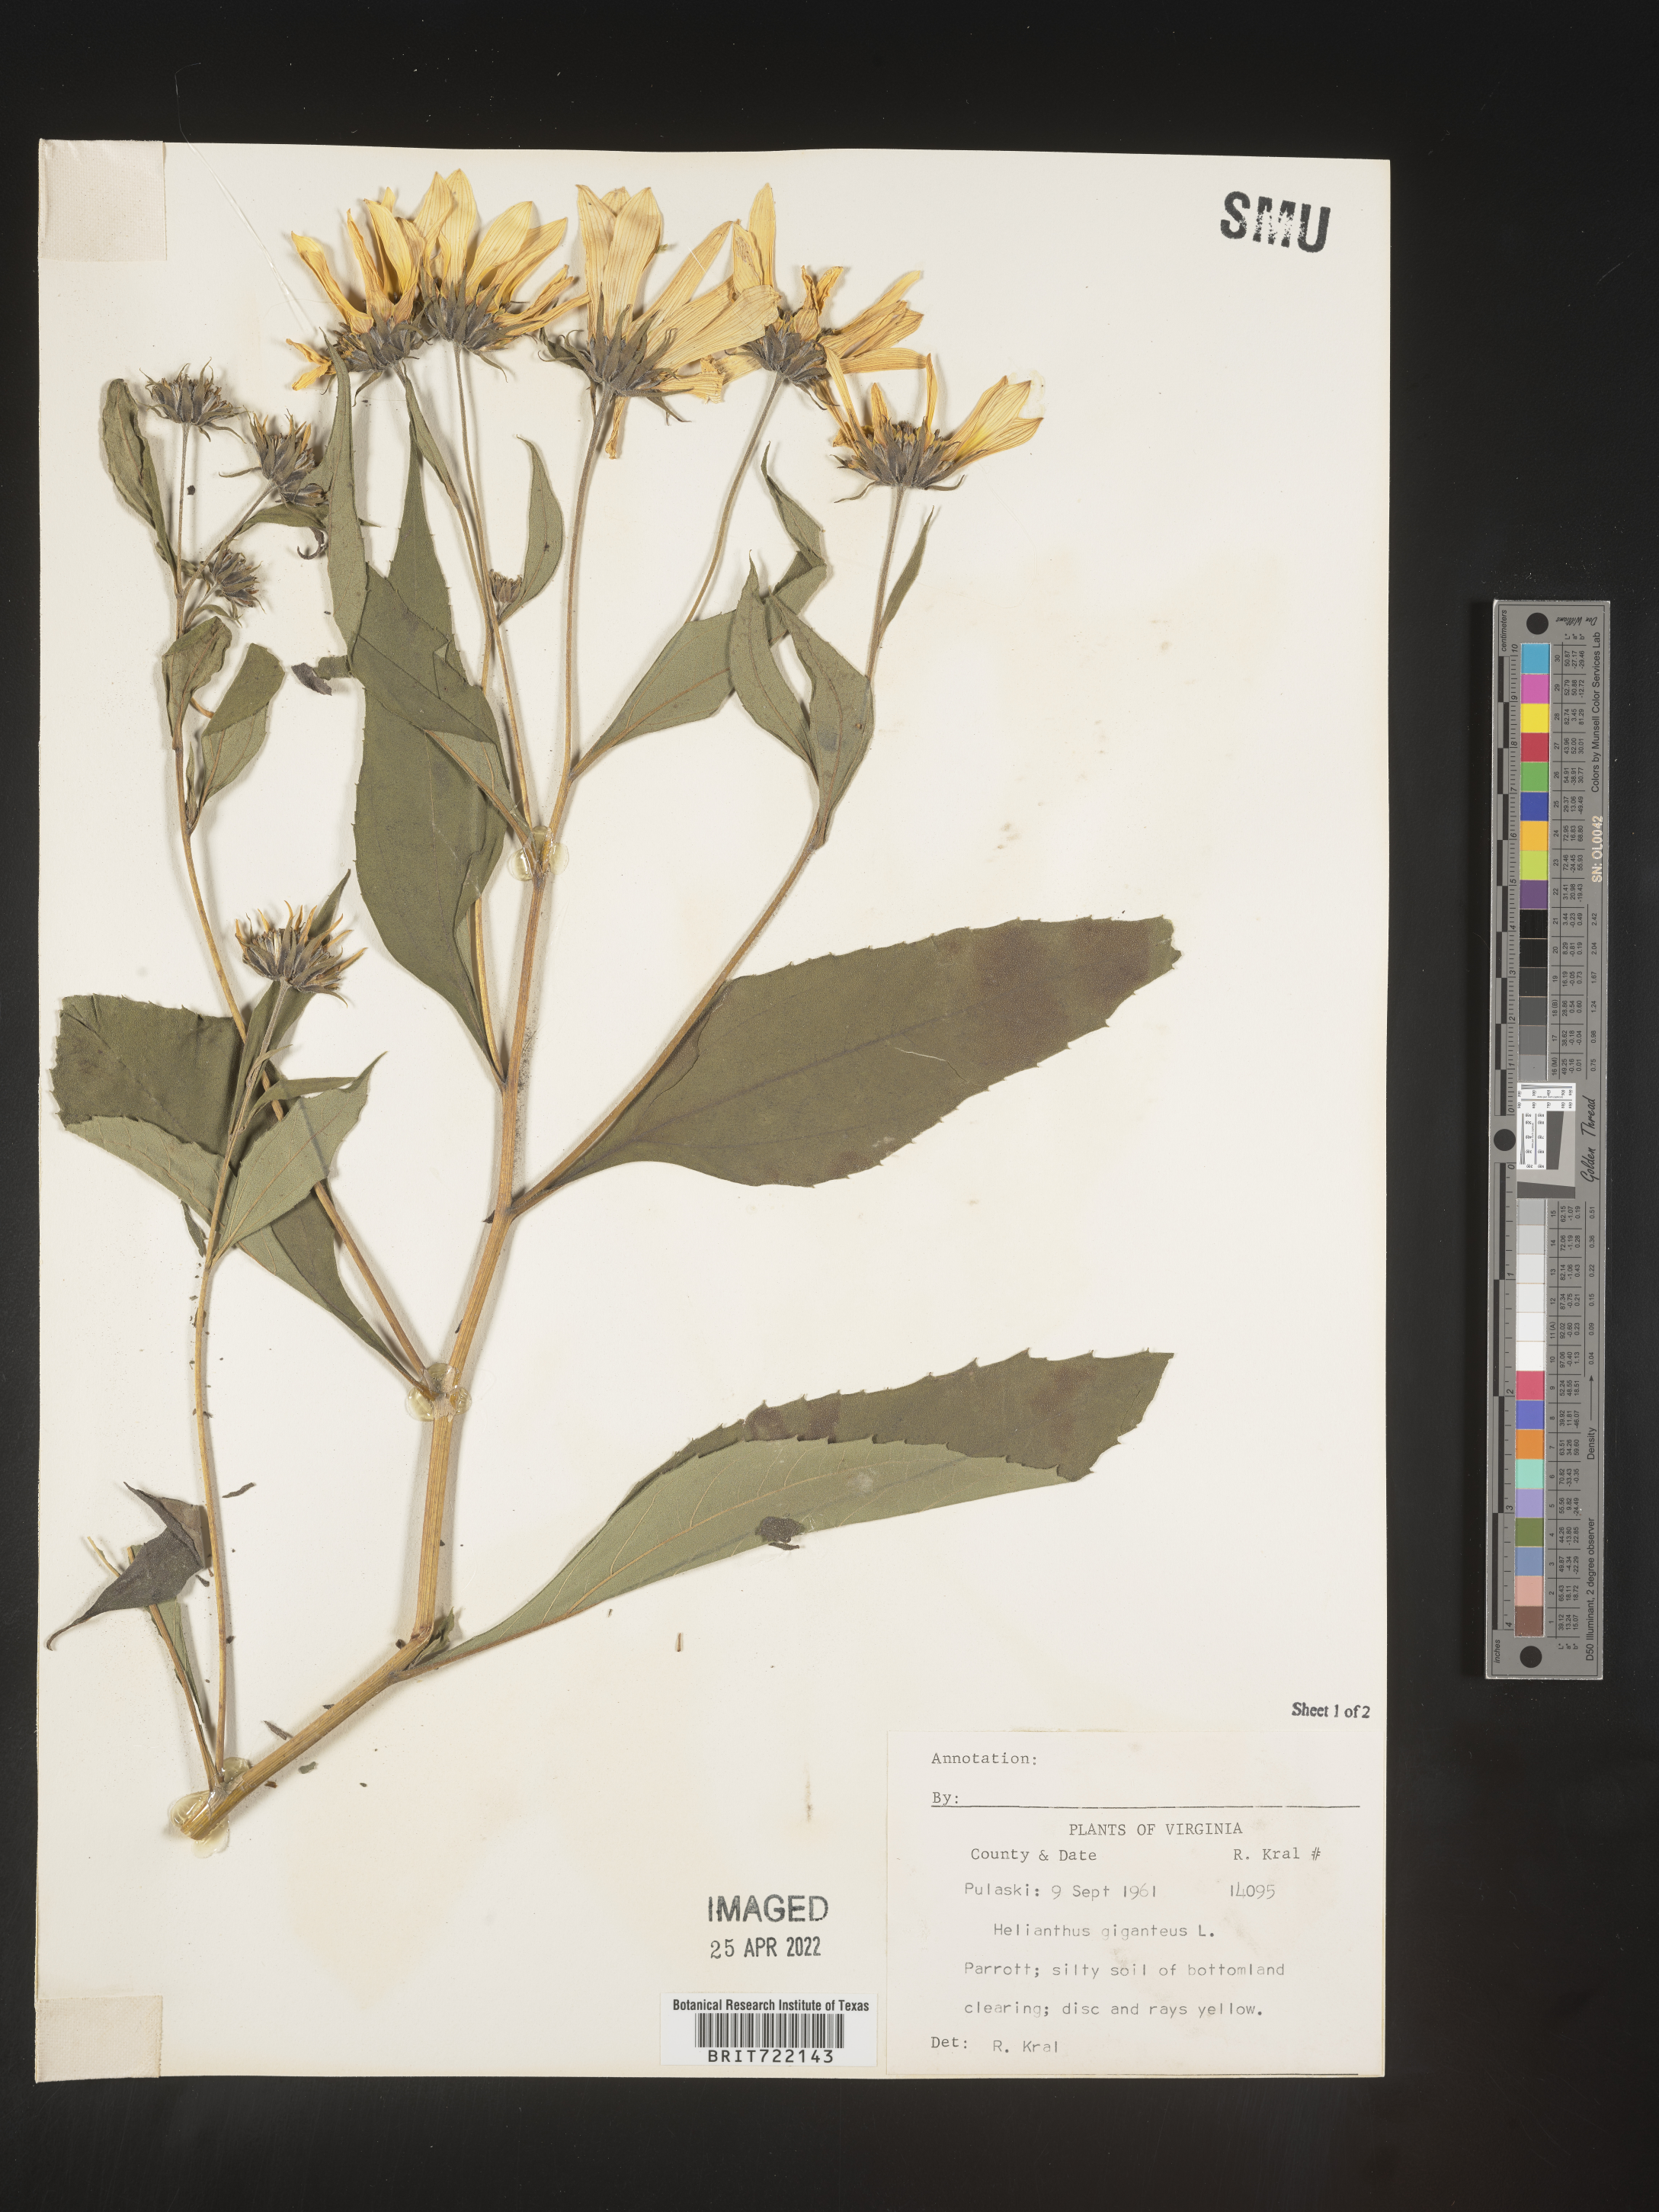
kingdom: Plantae
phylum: Tracheophyta
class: Magnoliopsida
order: Asterales
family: Asteraceae
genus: Helianthus
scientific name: Helianthus giganteus
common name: Giant sunflower
